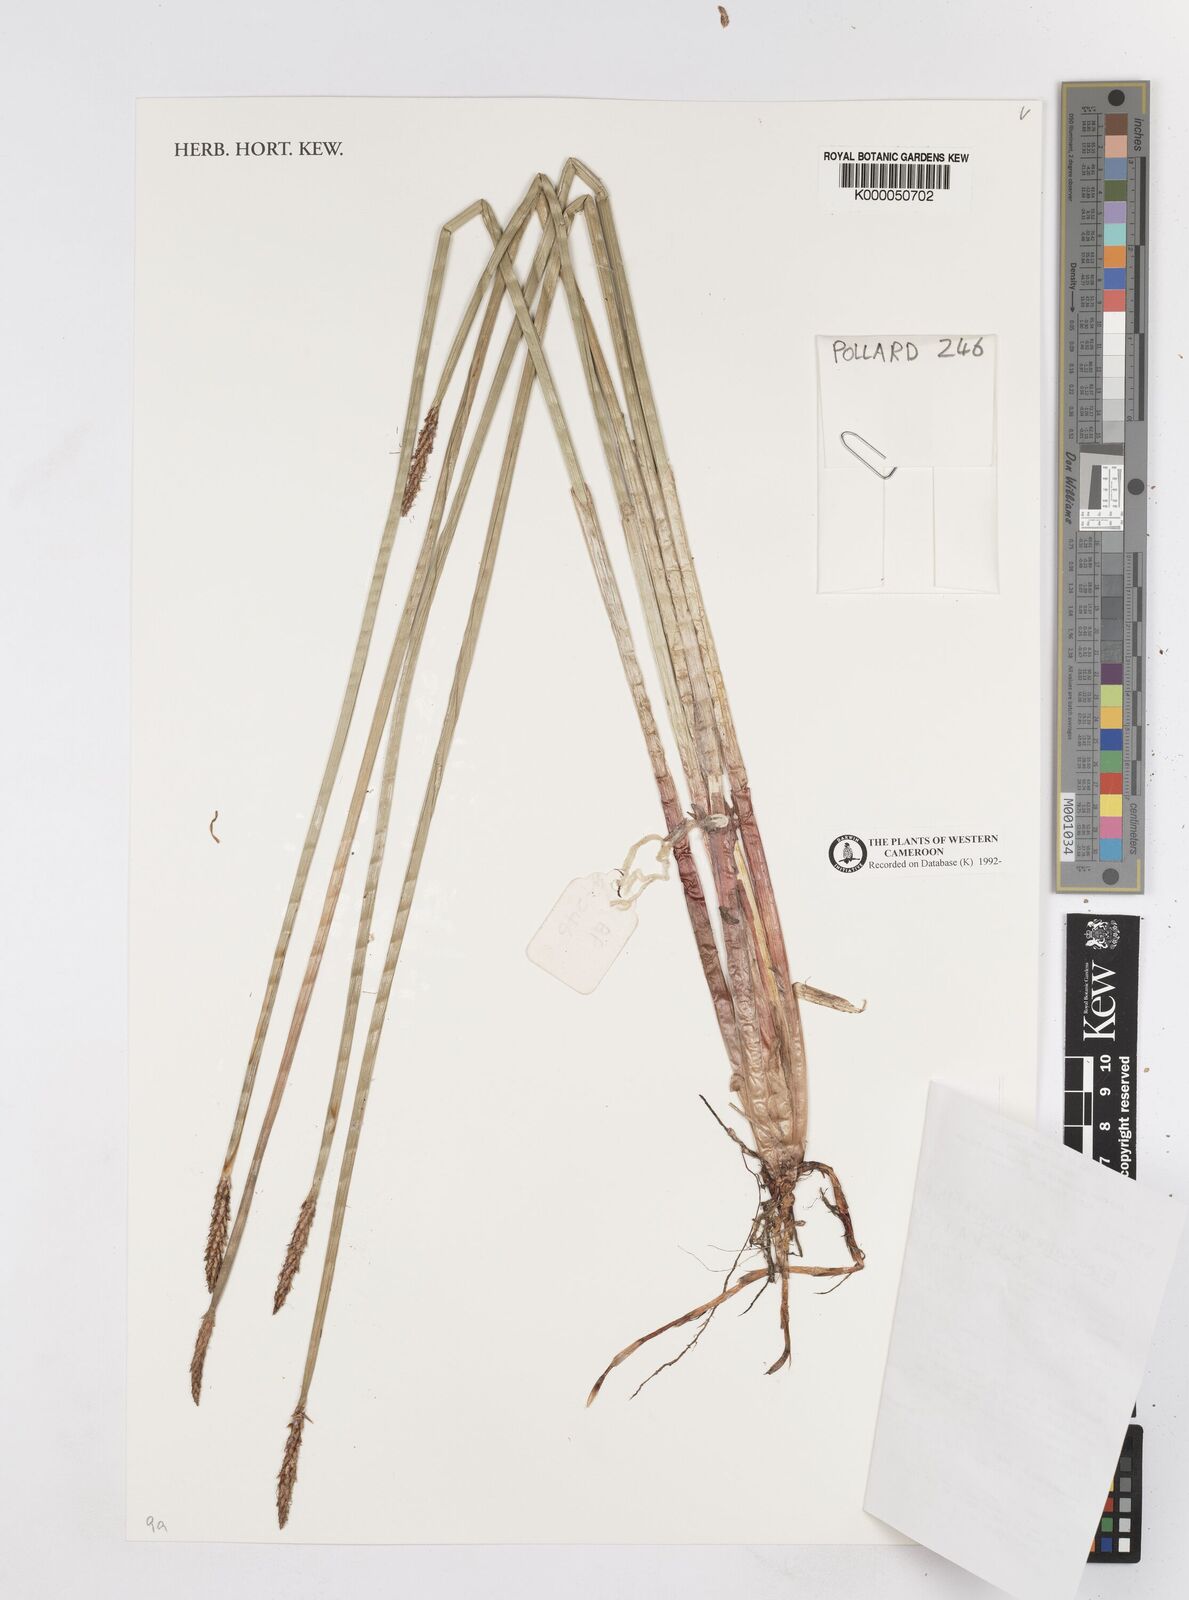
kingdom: Plantae
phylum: Tracheophyta
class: Liliopsida
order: Poales
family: Cyperaceae
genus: Eleocharis
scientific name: Eleocharis variegata
